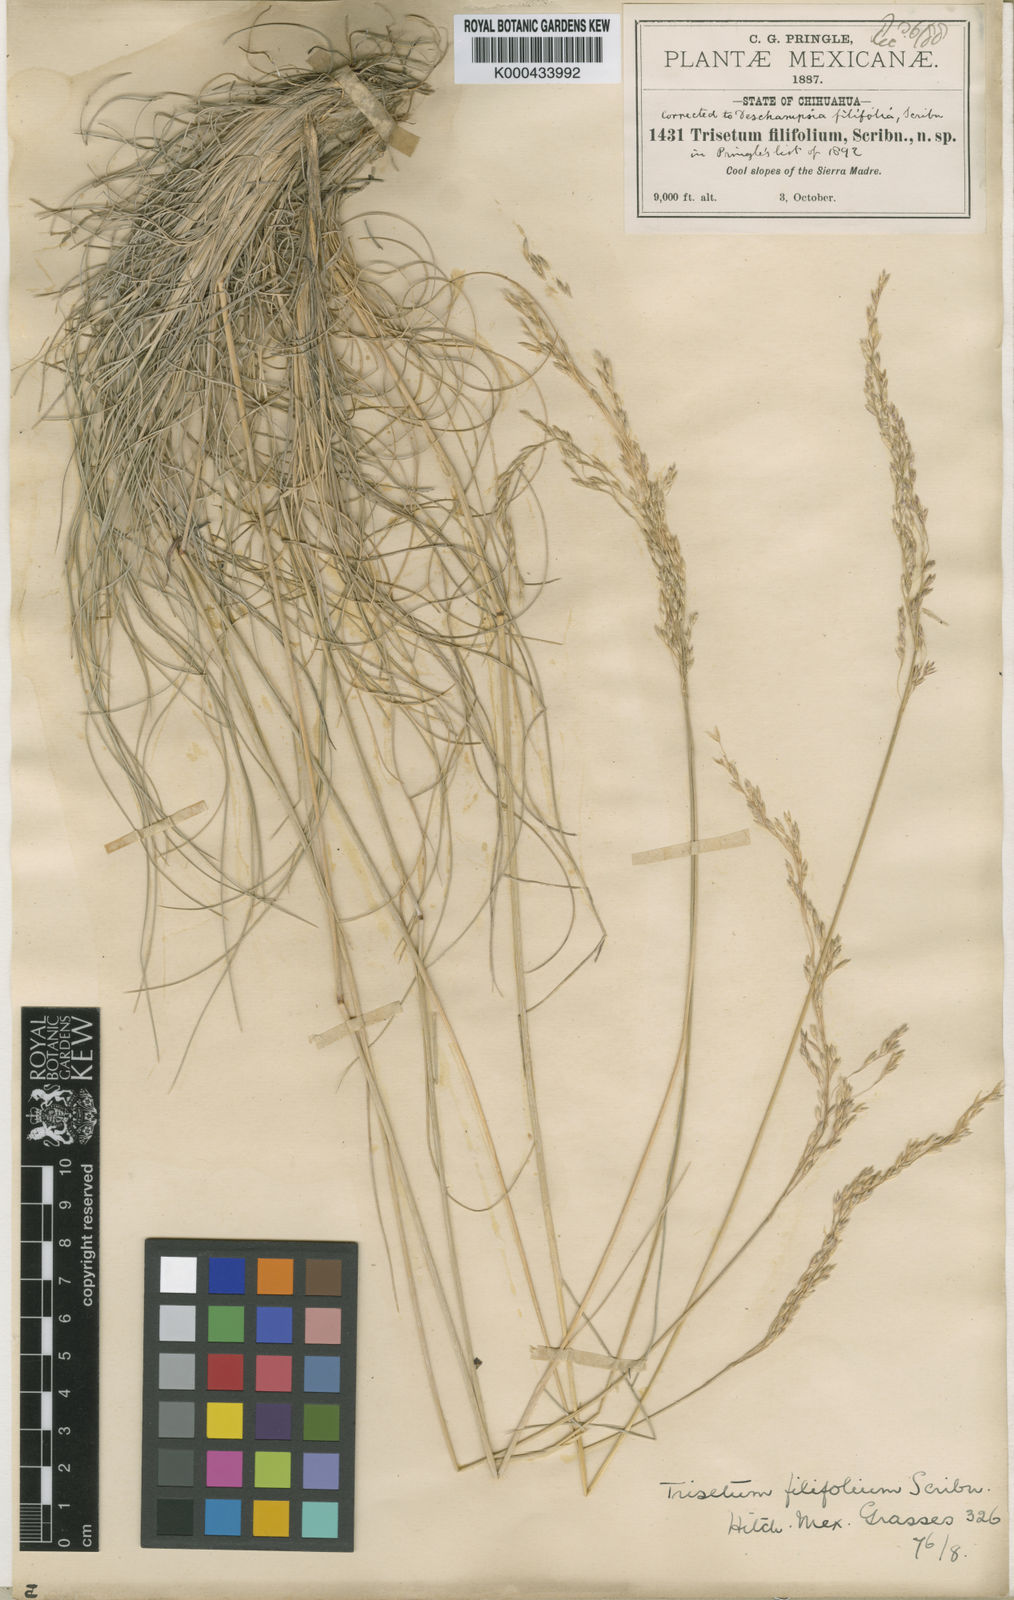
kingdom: Plantae
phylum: Tracheophyta
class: Liliopsida
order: Poales
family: Poaceae
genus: Trisetum
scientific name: Trisetum
